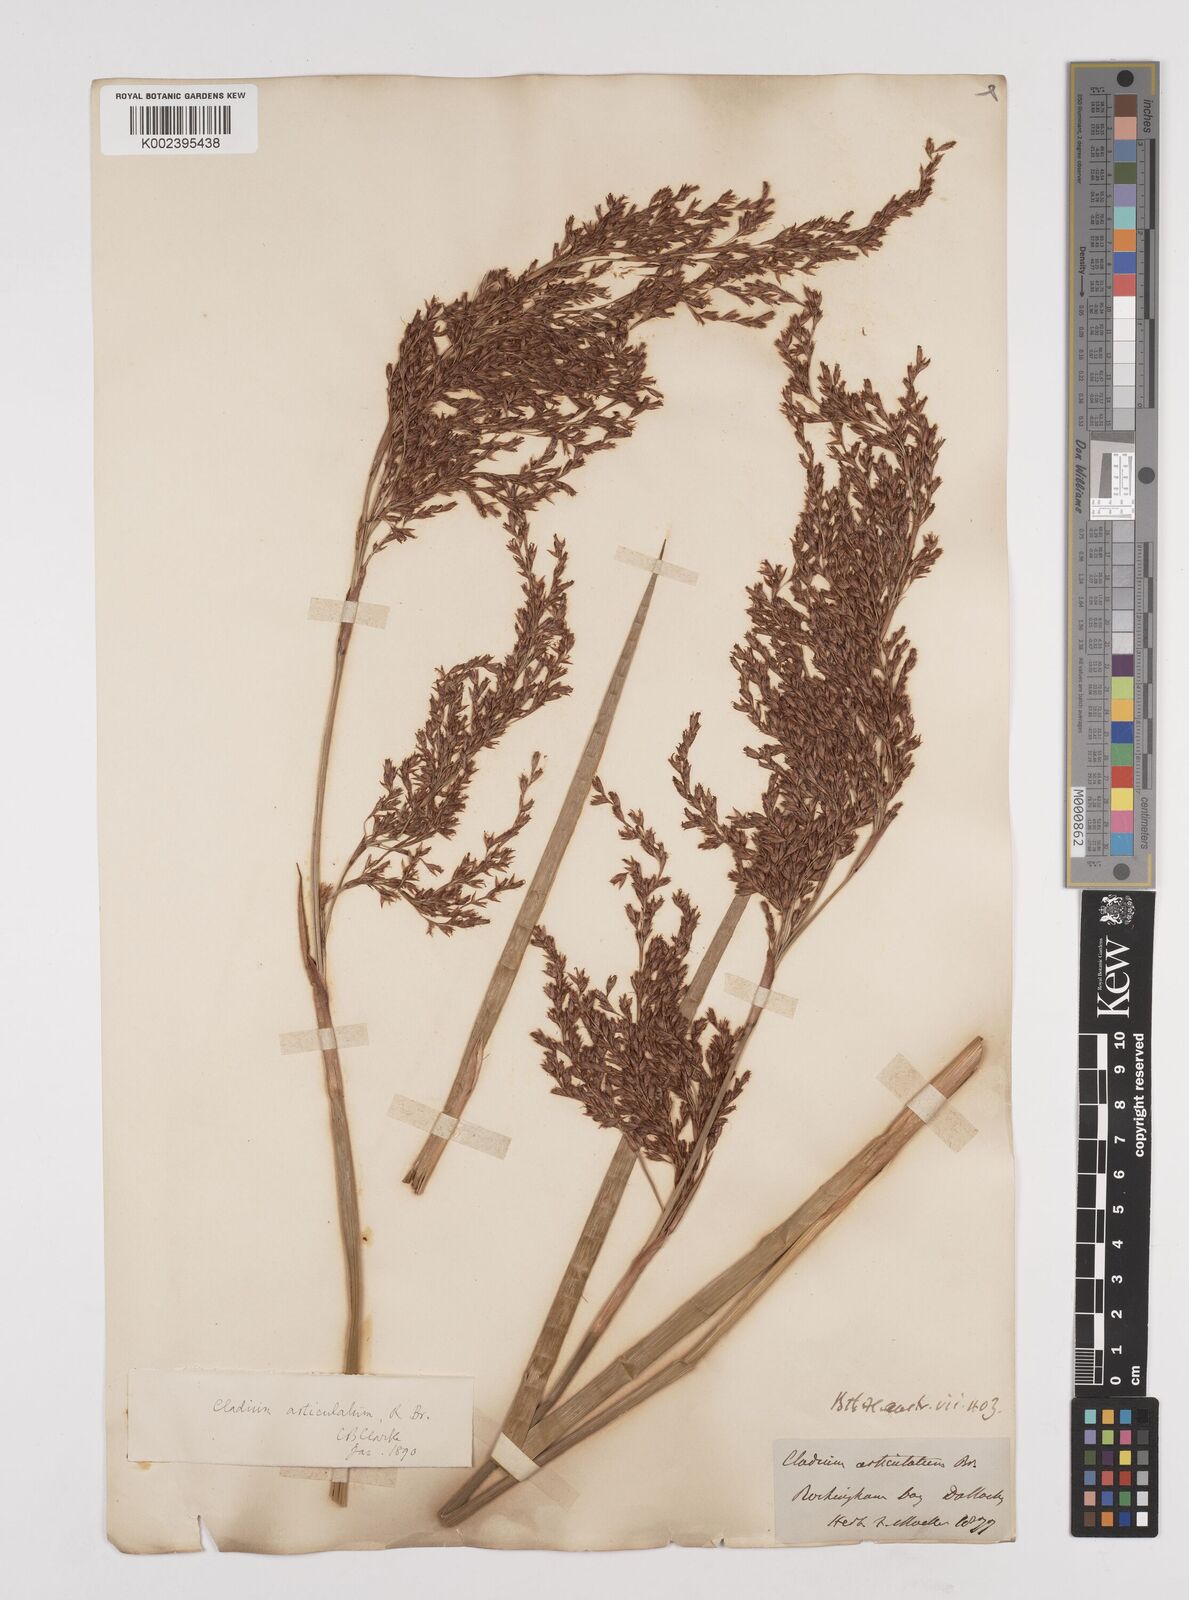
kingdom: Plantae
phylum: Tracheophyta
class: Liliopsida
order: Poales
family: Cyperaceae
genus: Machaerina
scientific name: Machaerina articulata
